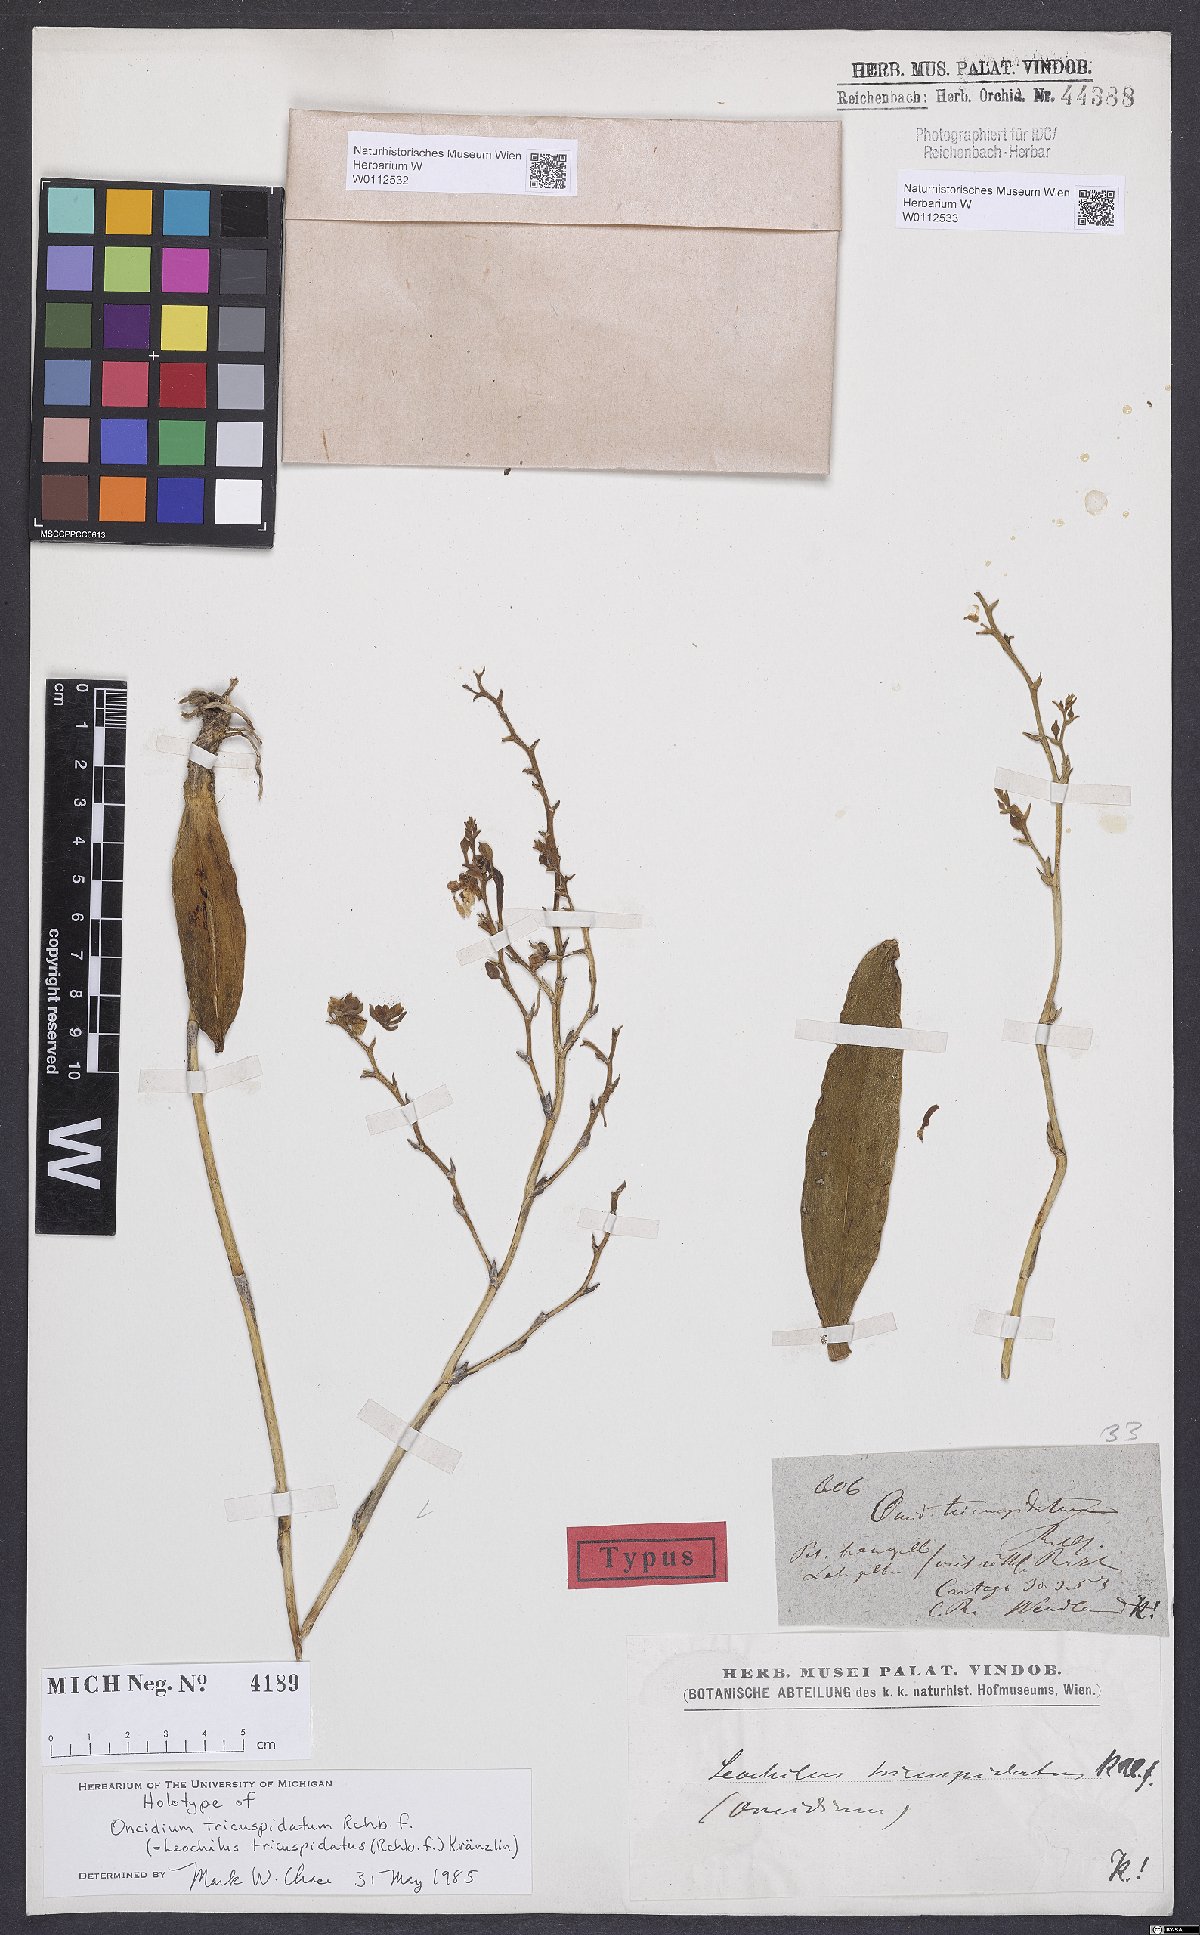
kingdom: Plantae
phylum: Tracheophyta
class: Liliopsida
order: Asparagales
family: Orchidaceae
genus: Leochilus
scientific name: Leochilus tricuspidatus
